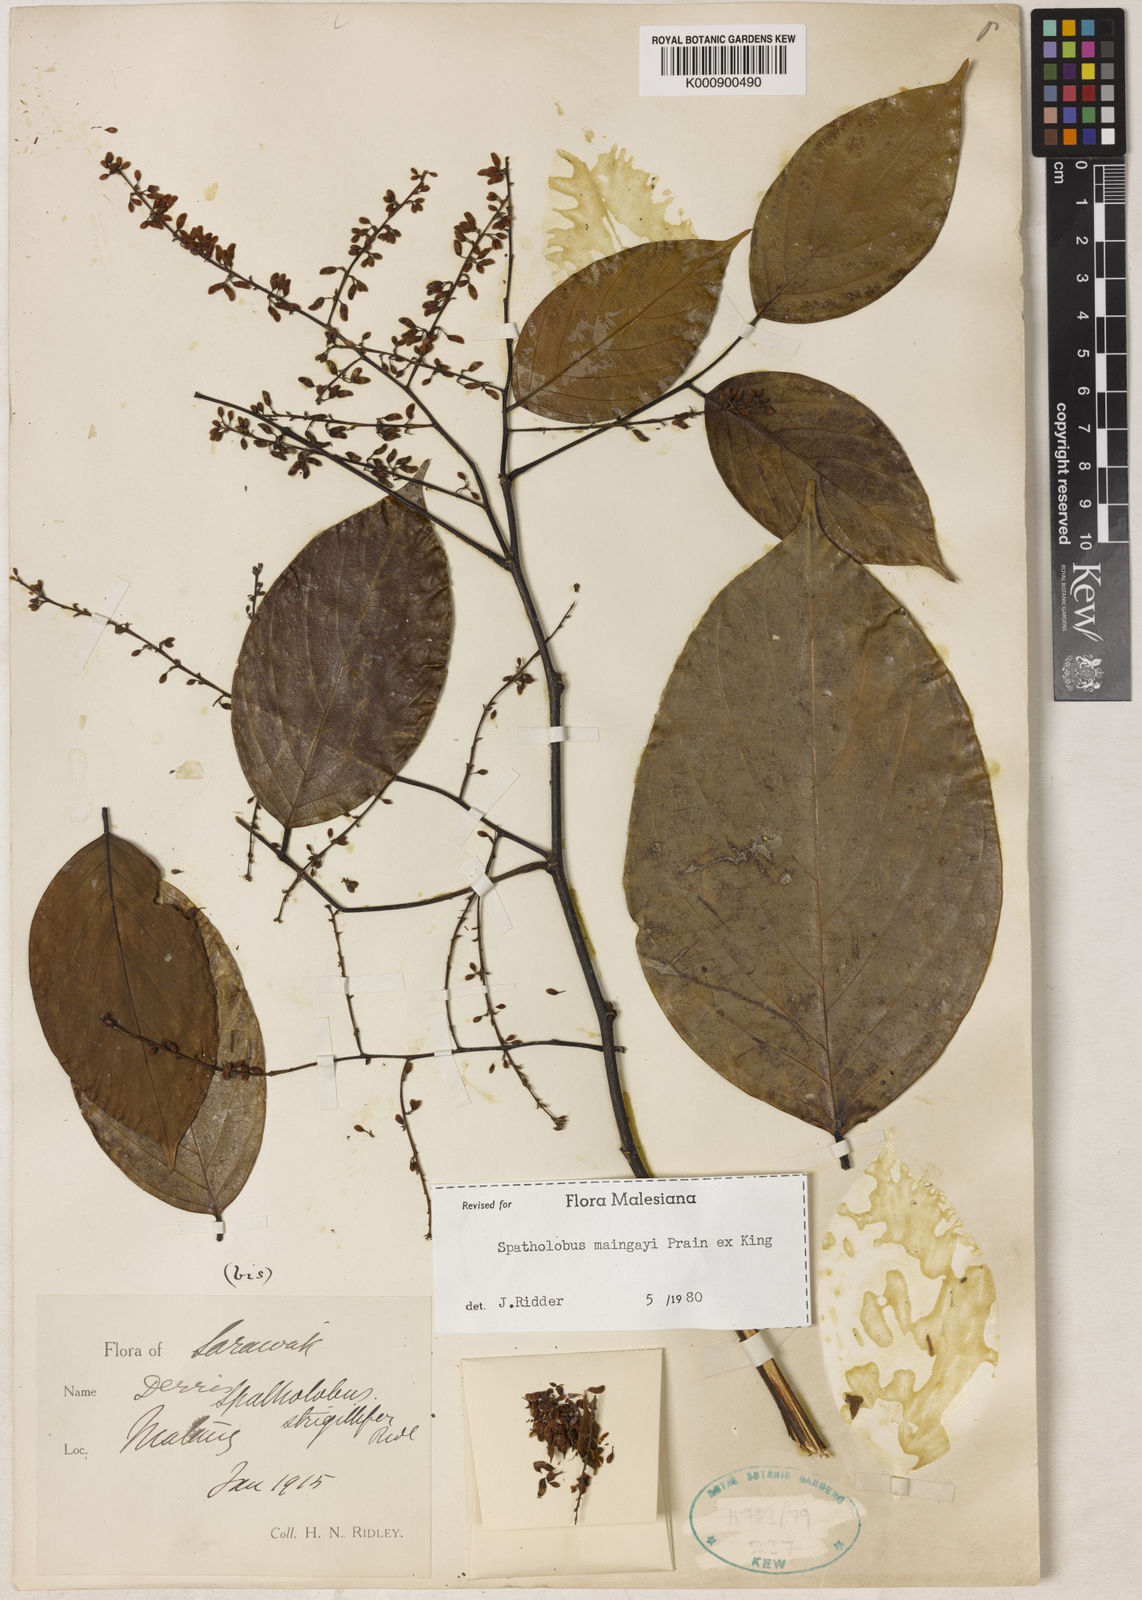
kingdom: Plantae
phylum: Tracheophyta
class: Magnoliopsida
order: Fabales
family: Fabaceae
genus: Spatholobus
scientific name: Spatholobus
